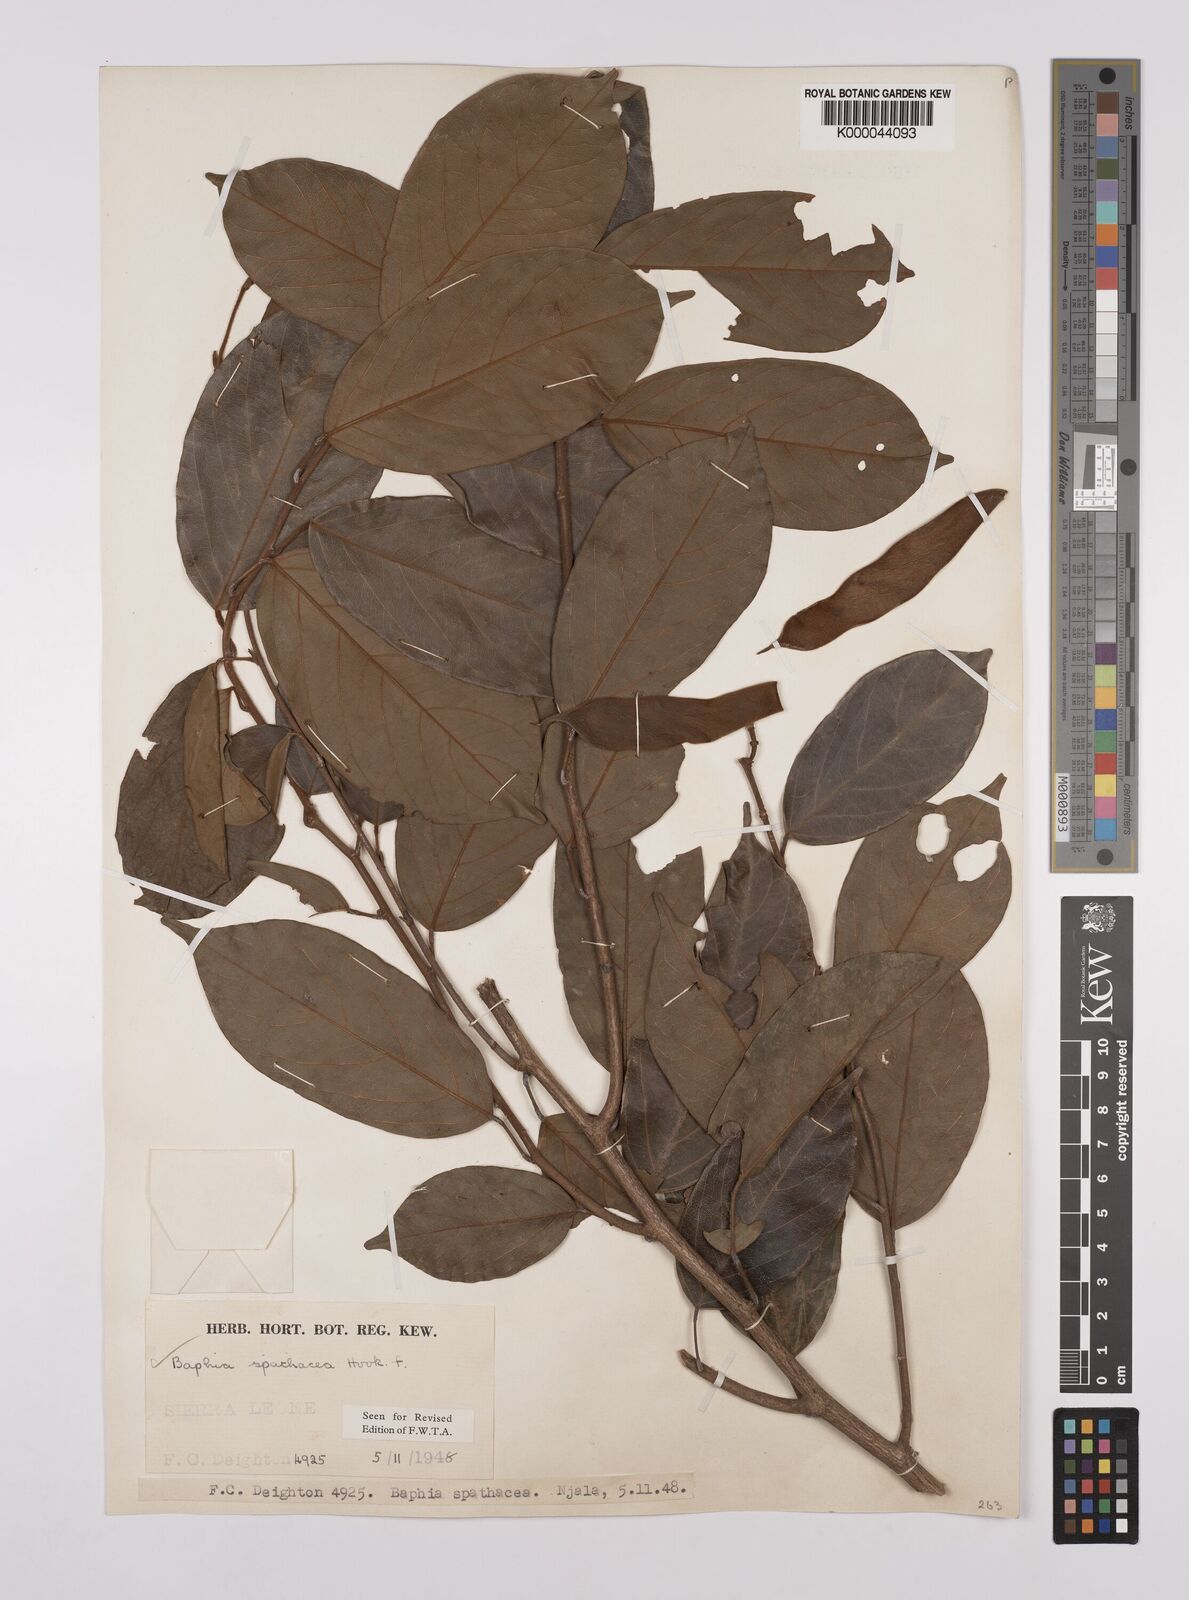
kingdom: Plantae
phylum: Tracheophyta
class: Magnoliopsida
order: Fabales
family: Fabaceae
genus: Baphia
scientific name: Baphia spathacea
